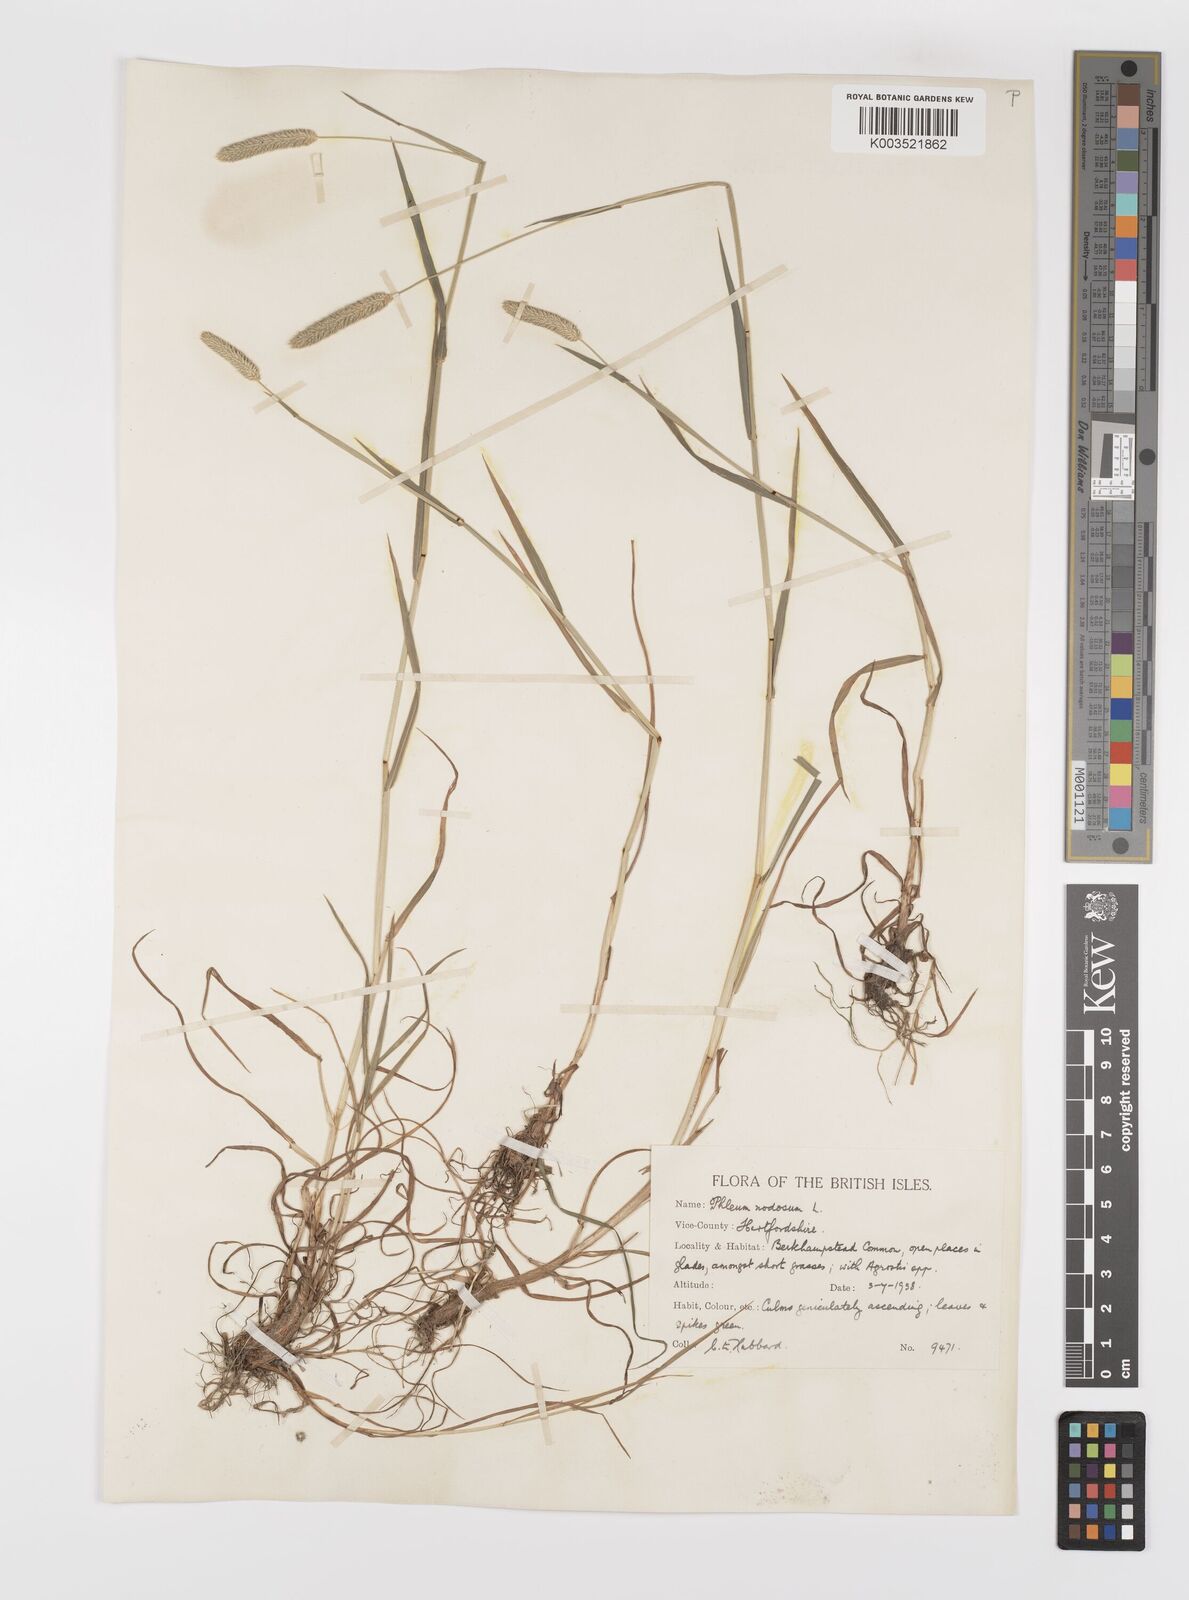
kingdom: Plantae
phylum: Tracheophyta
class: Liliopsida
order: Poales
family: Poaceae
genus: Phleum
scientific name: Phleum bertolonii
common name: Smaller cat's-tail
